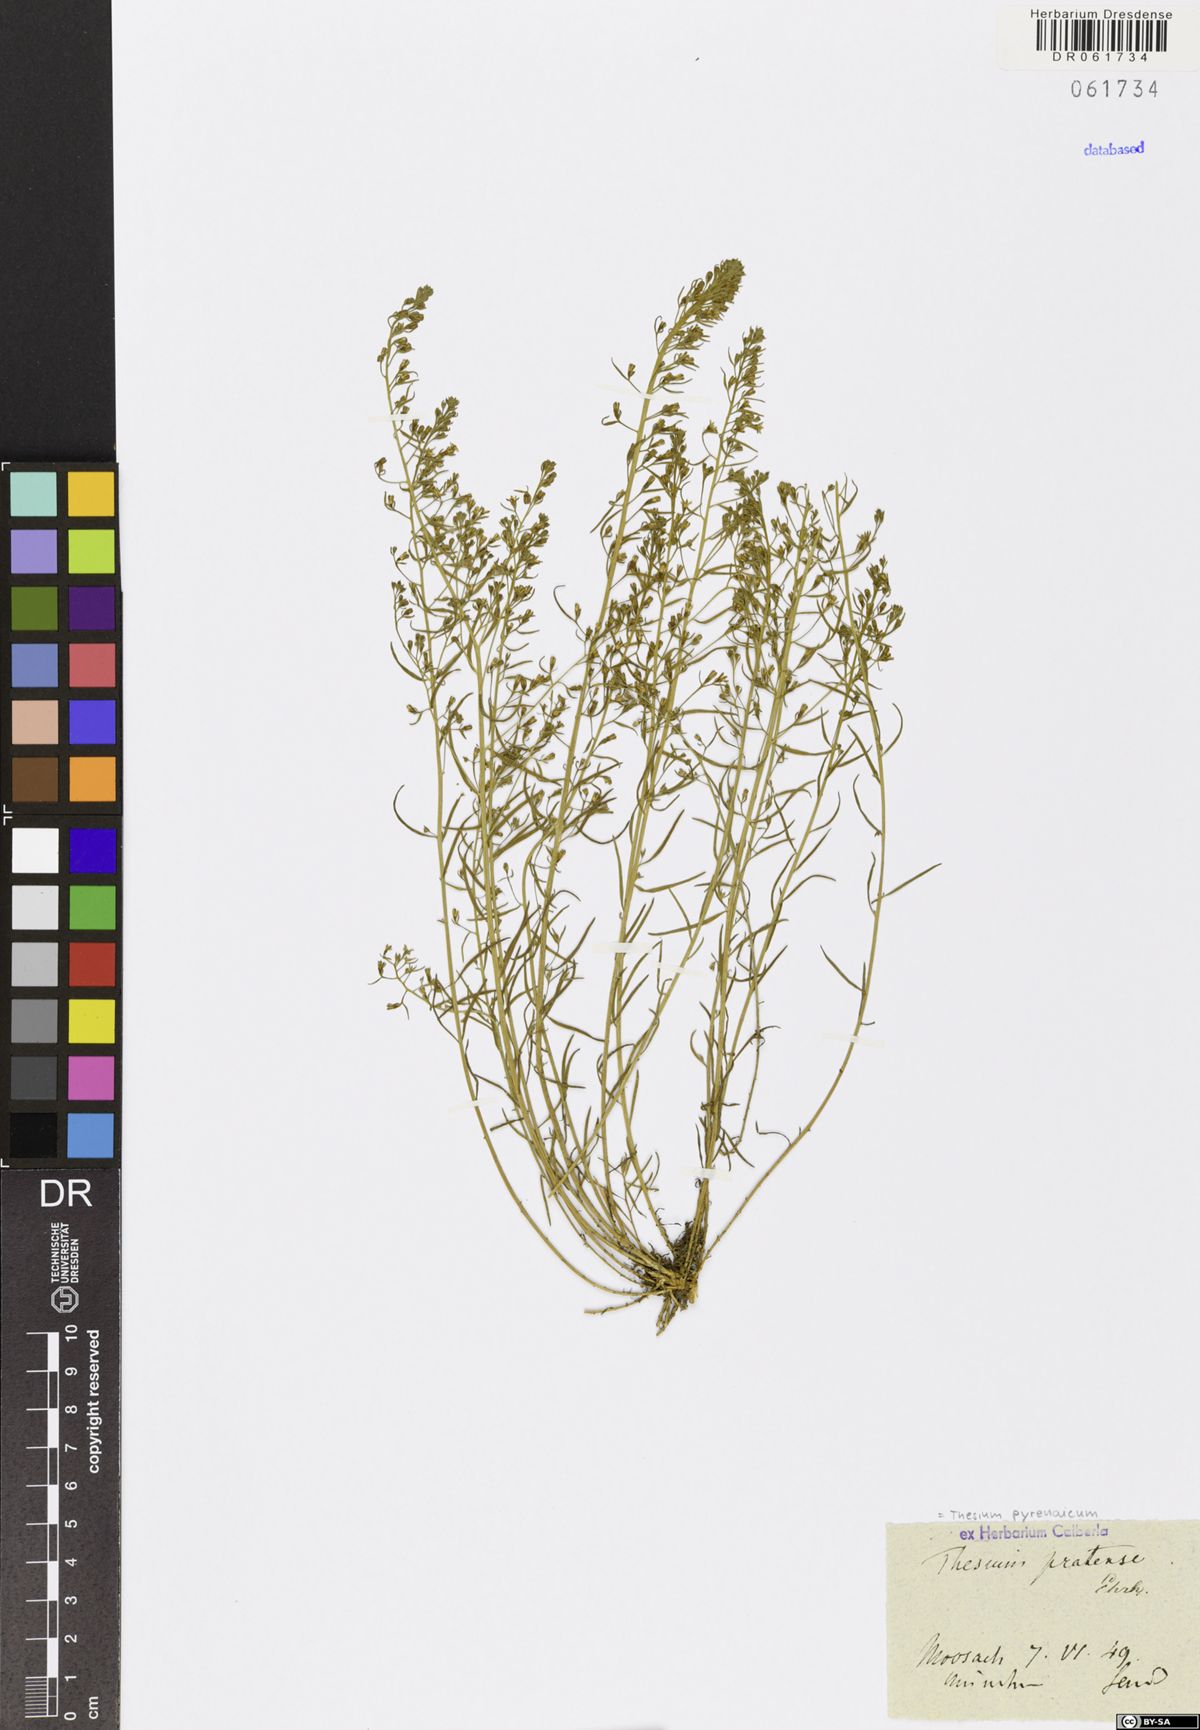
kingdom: Plantae
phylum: Tracheophyta
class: Magnoliopsida
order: Santalales
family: Thesiaceae
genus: Thesium
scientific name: Thesium pyrenaicum
